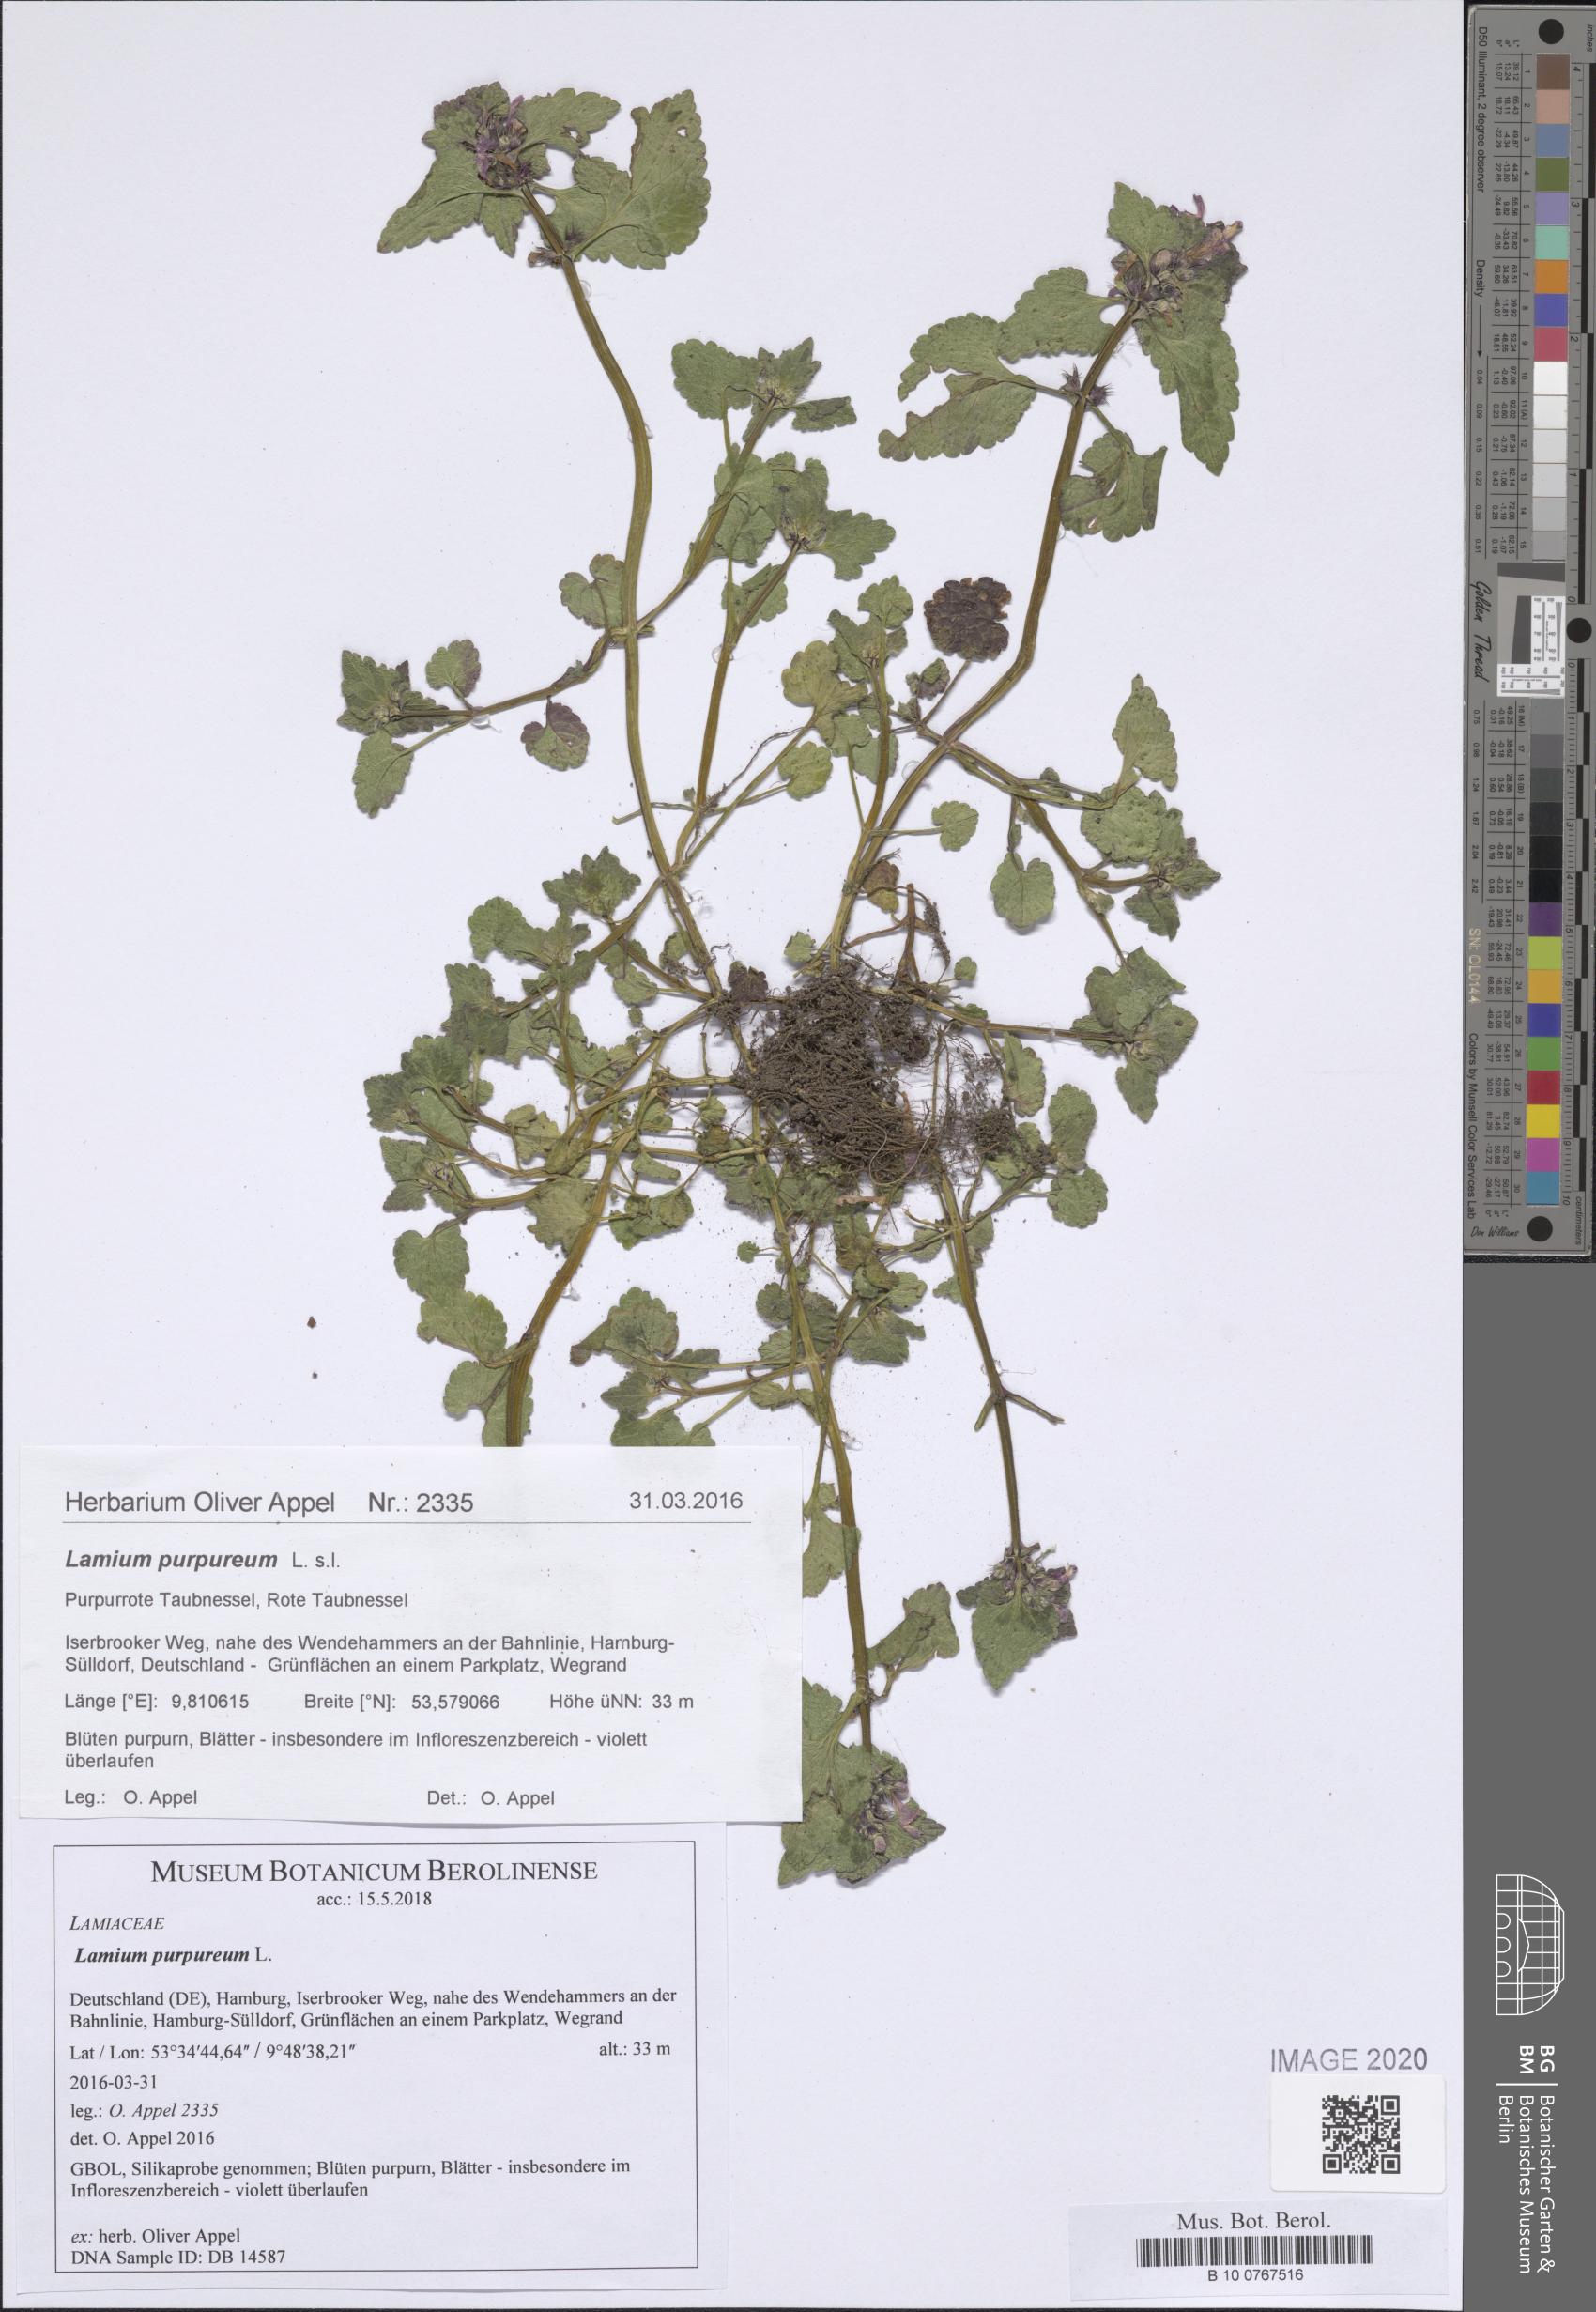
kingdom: Plantae
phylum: Tracheophyta
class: Magnoliopsida
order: Lamiales
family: Lamiaceae
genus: Lamium
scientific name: Lamium purpureum
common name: Red dead-nettle
